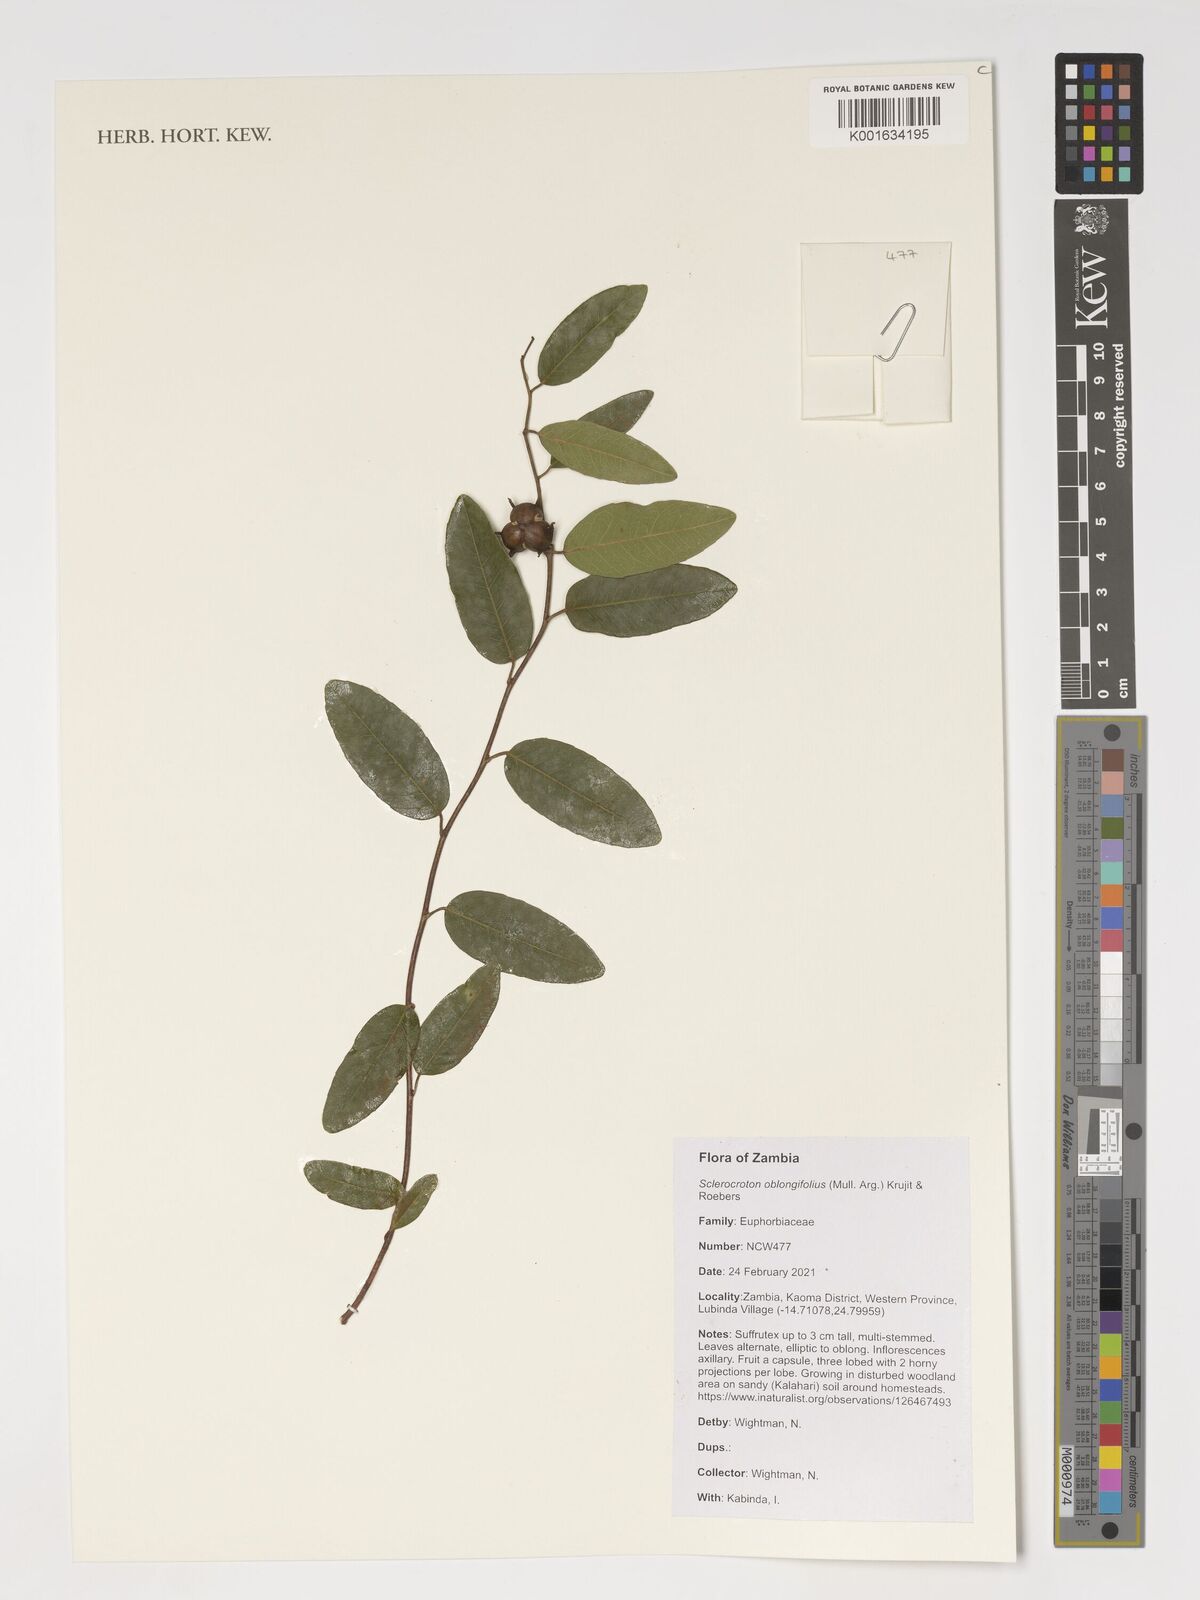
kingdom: Plantae
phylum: Tracheophyta
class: Magnoliopsida
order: Malpighiales
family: Euphorbiaceae
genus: Sclerocroton
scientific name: Sclerocroton oblongifolius
